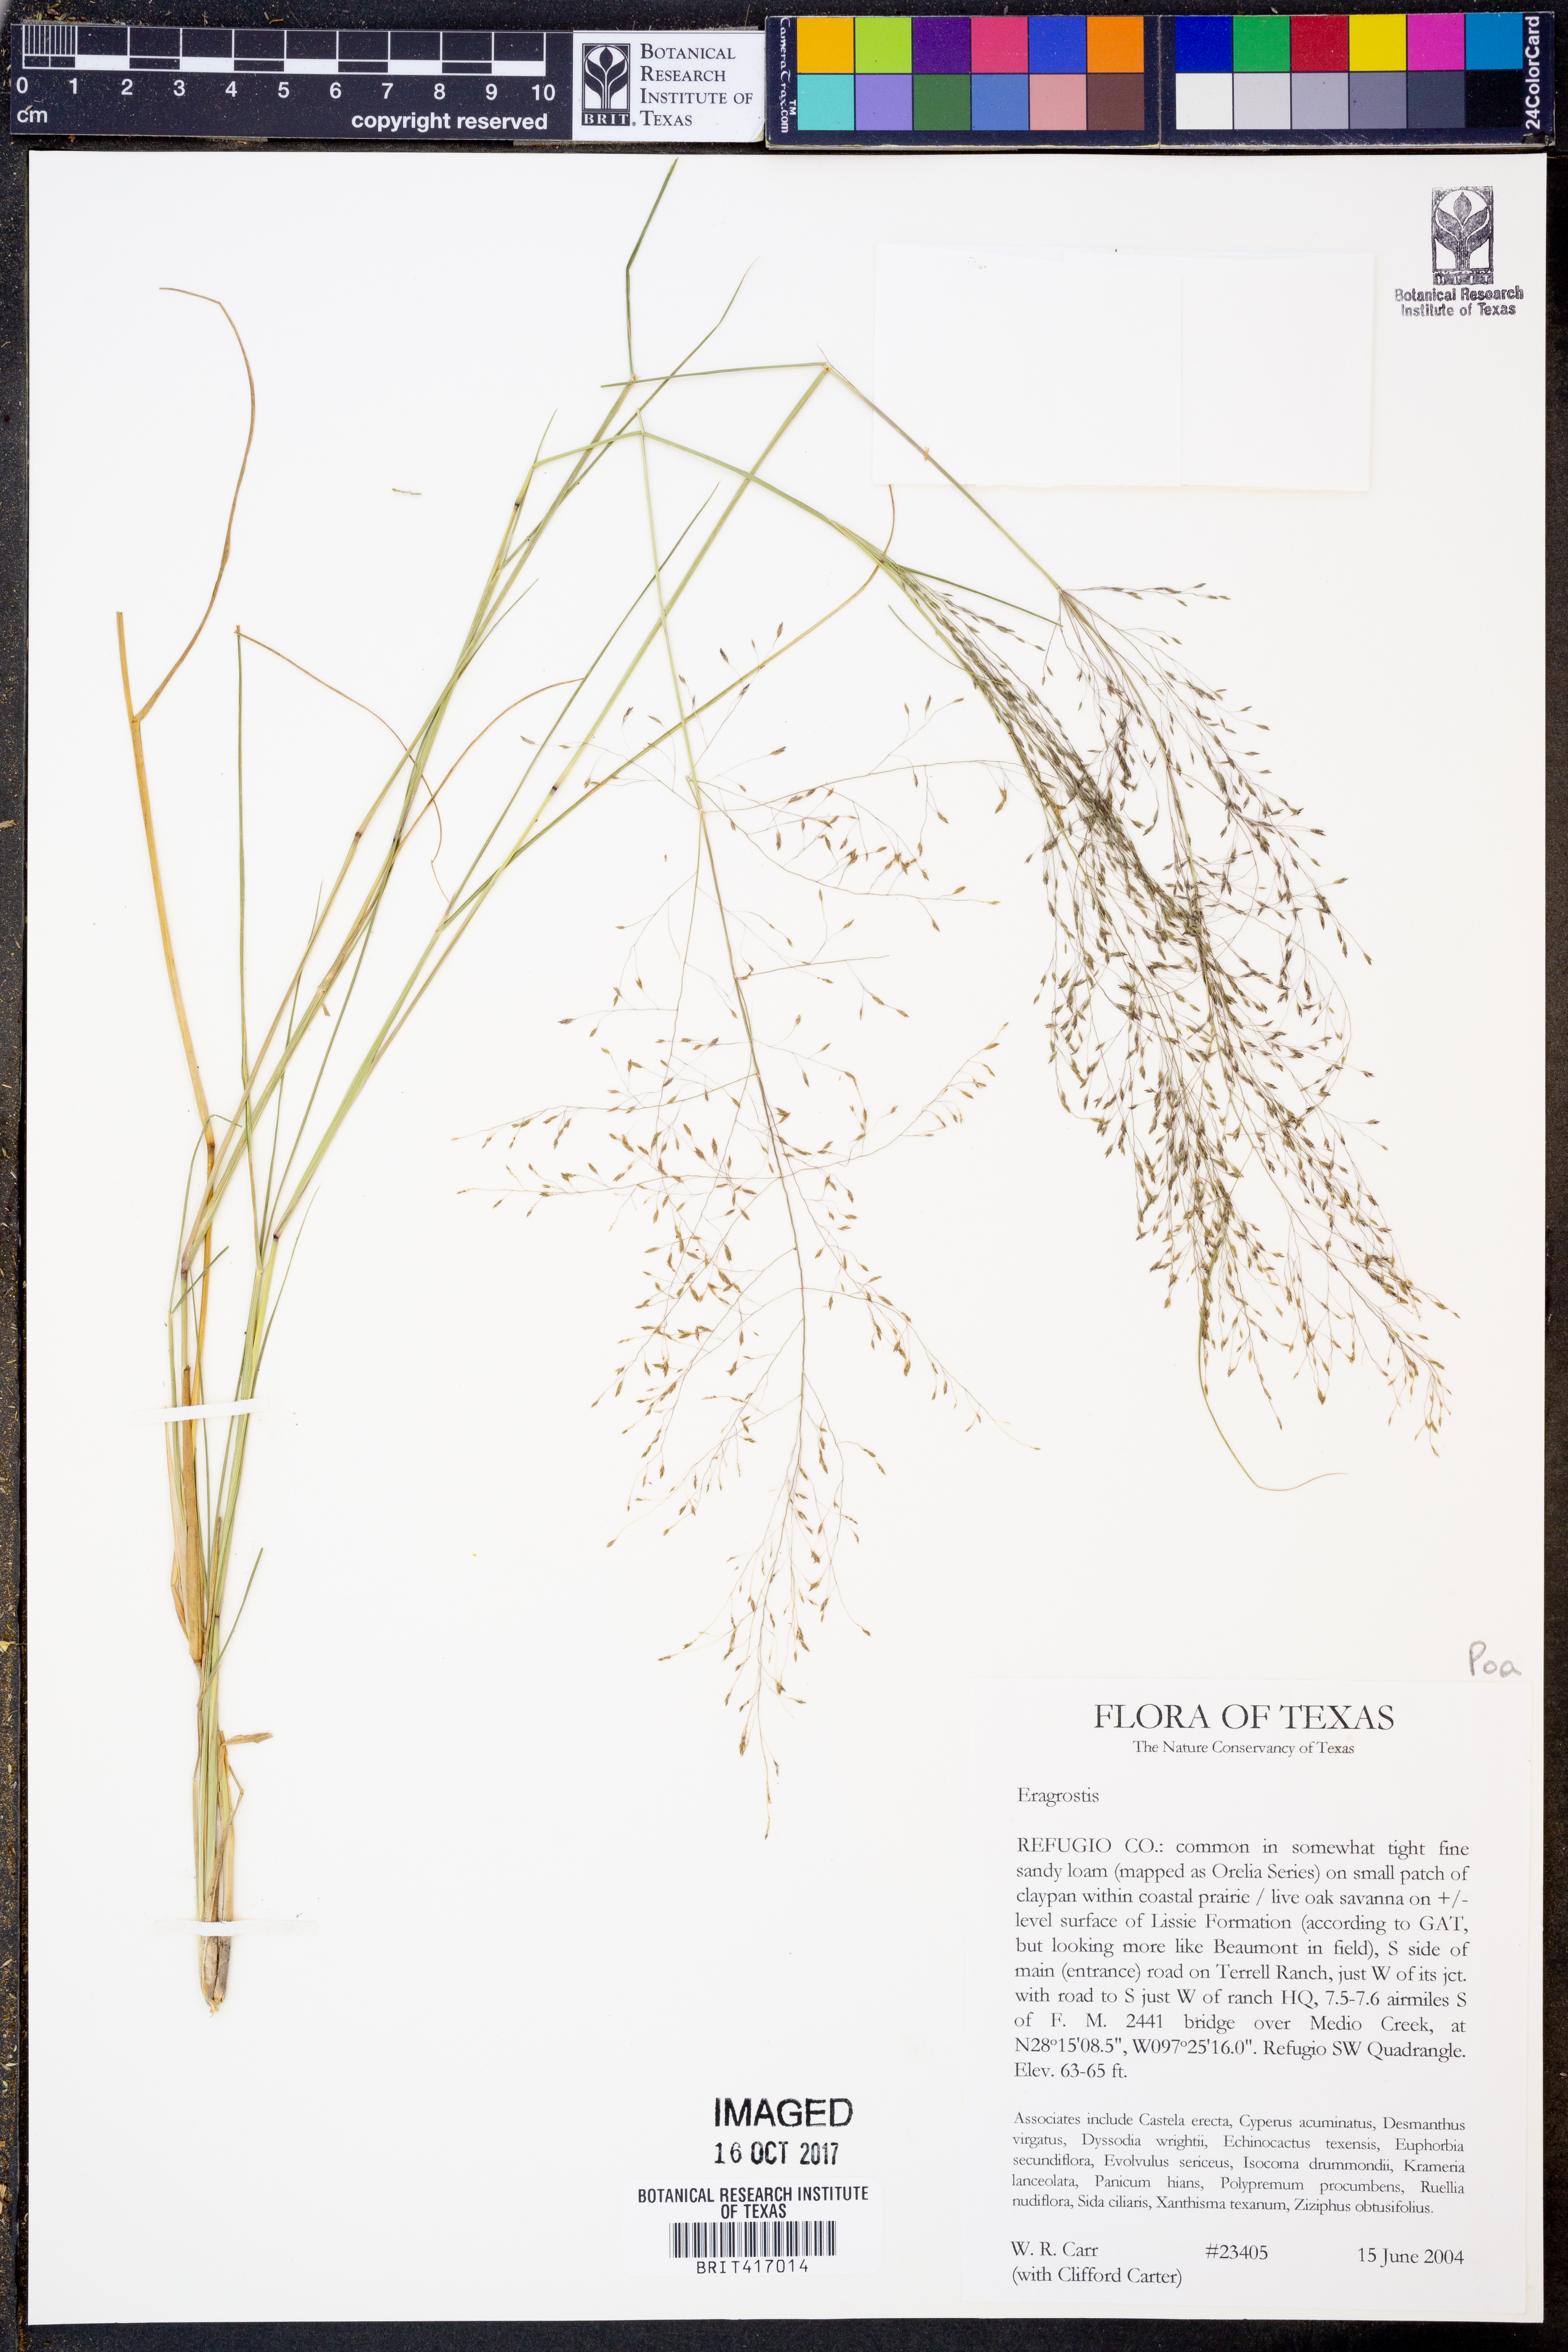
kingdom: Plantae
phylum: Tracheophyta
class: Liliopsida
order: Poales
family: Poaceae
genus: Eragrostis
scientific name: Eragrostis
